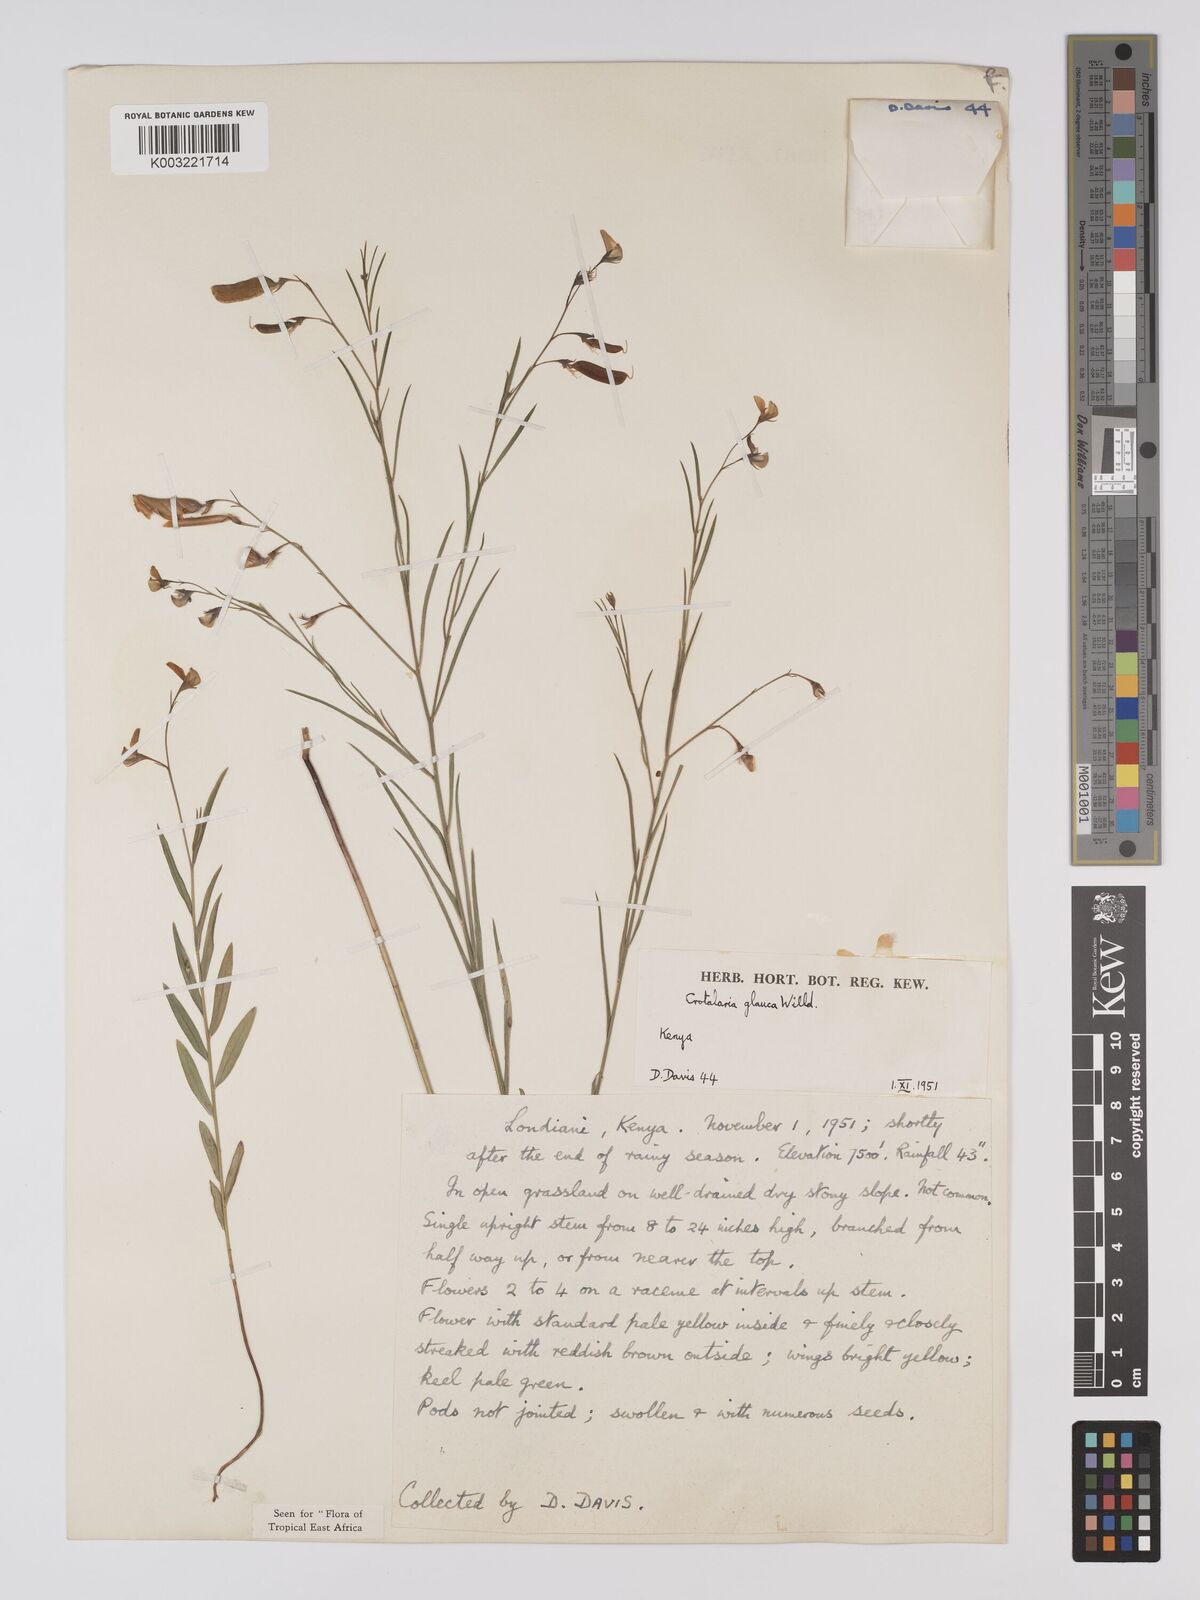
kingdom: Plantae
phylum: Tracheophyta
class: Magnoliopsida
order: Fabales
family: Fabaceae
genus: Crotalaria
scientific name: Crotalaria glauca
